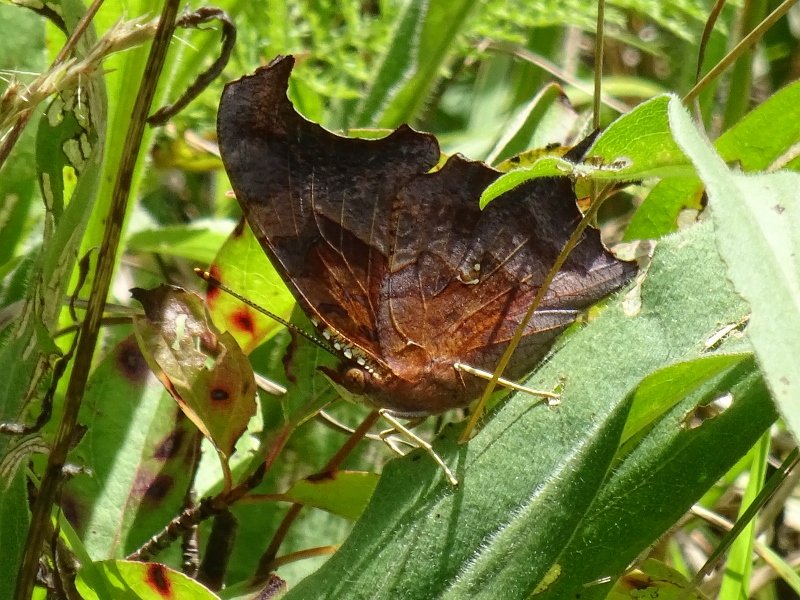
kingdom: Animalia
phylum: Arthropoda
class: Insecta
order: Lepidoptera
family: Nymphalidae
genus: Polygonia
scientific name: Polygonia interrogationis
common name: Question Mark
